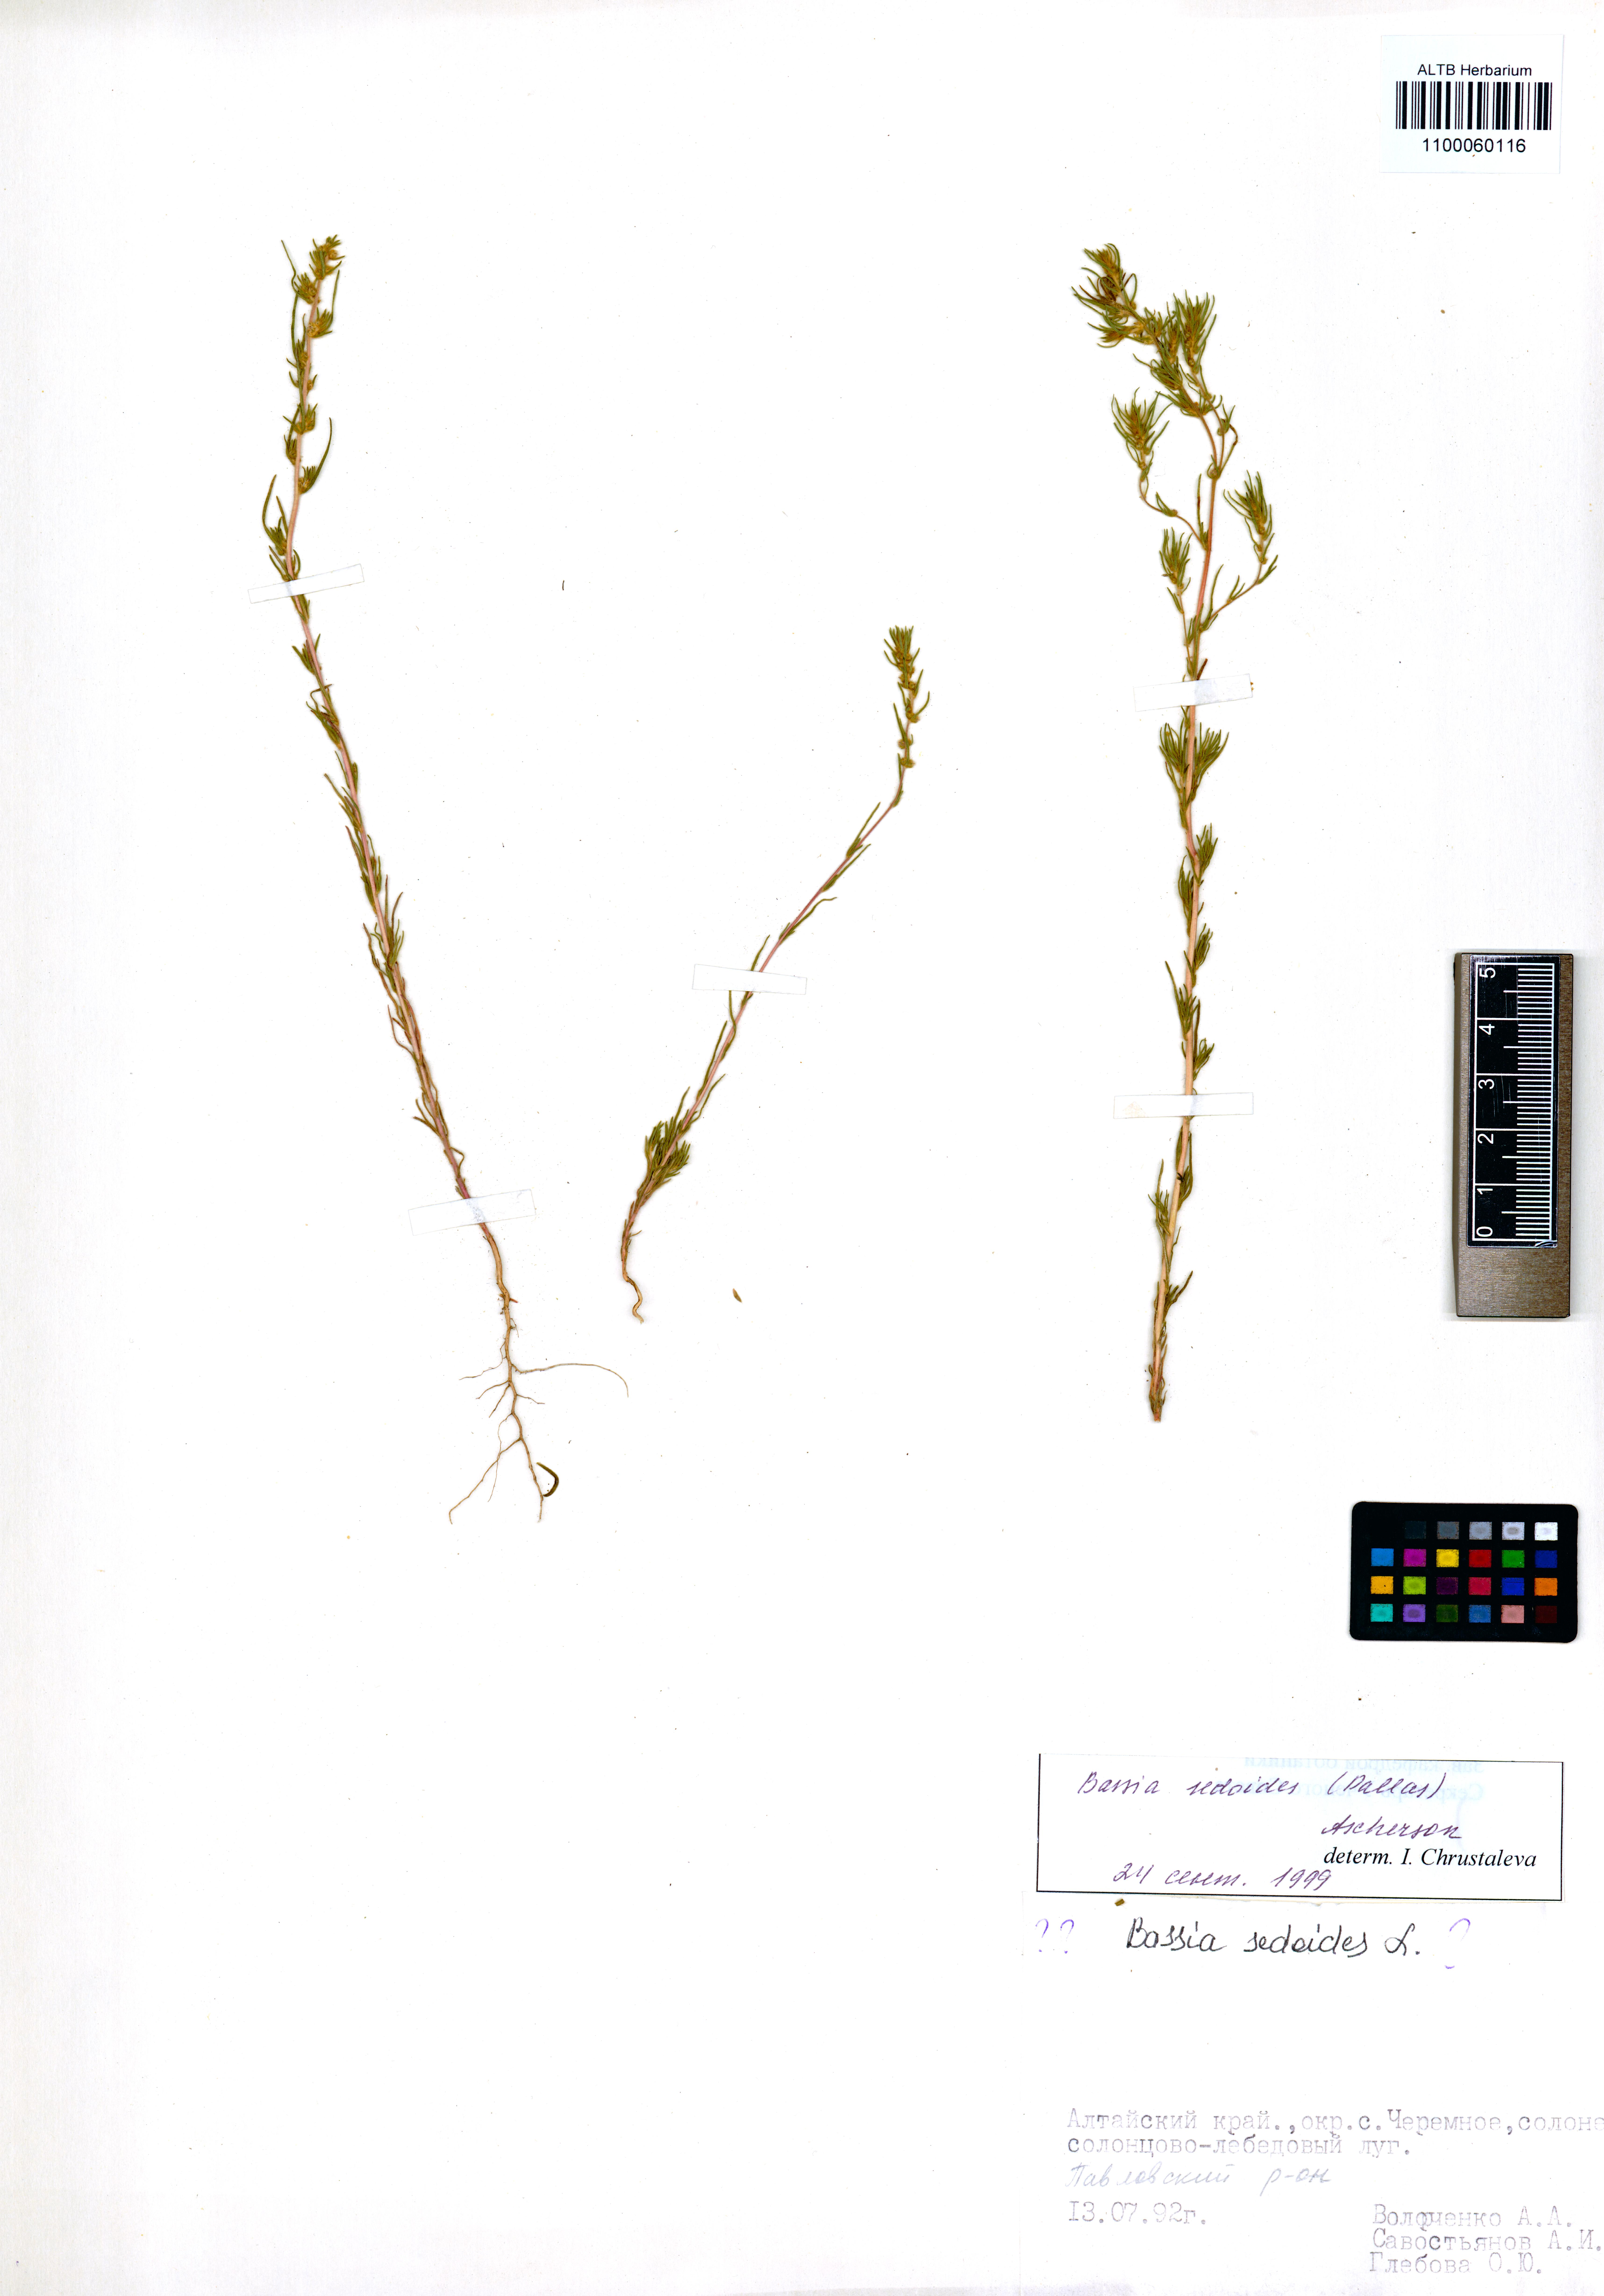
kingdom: Plantae
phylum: Tracheophyta
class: Magnoliopsida
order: Caryophyllales
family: Amaranthaceae
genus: Sedobassia
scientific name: Sedobassia sedoides
